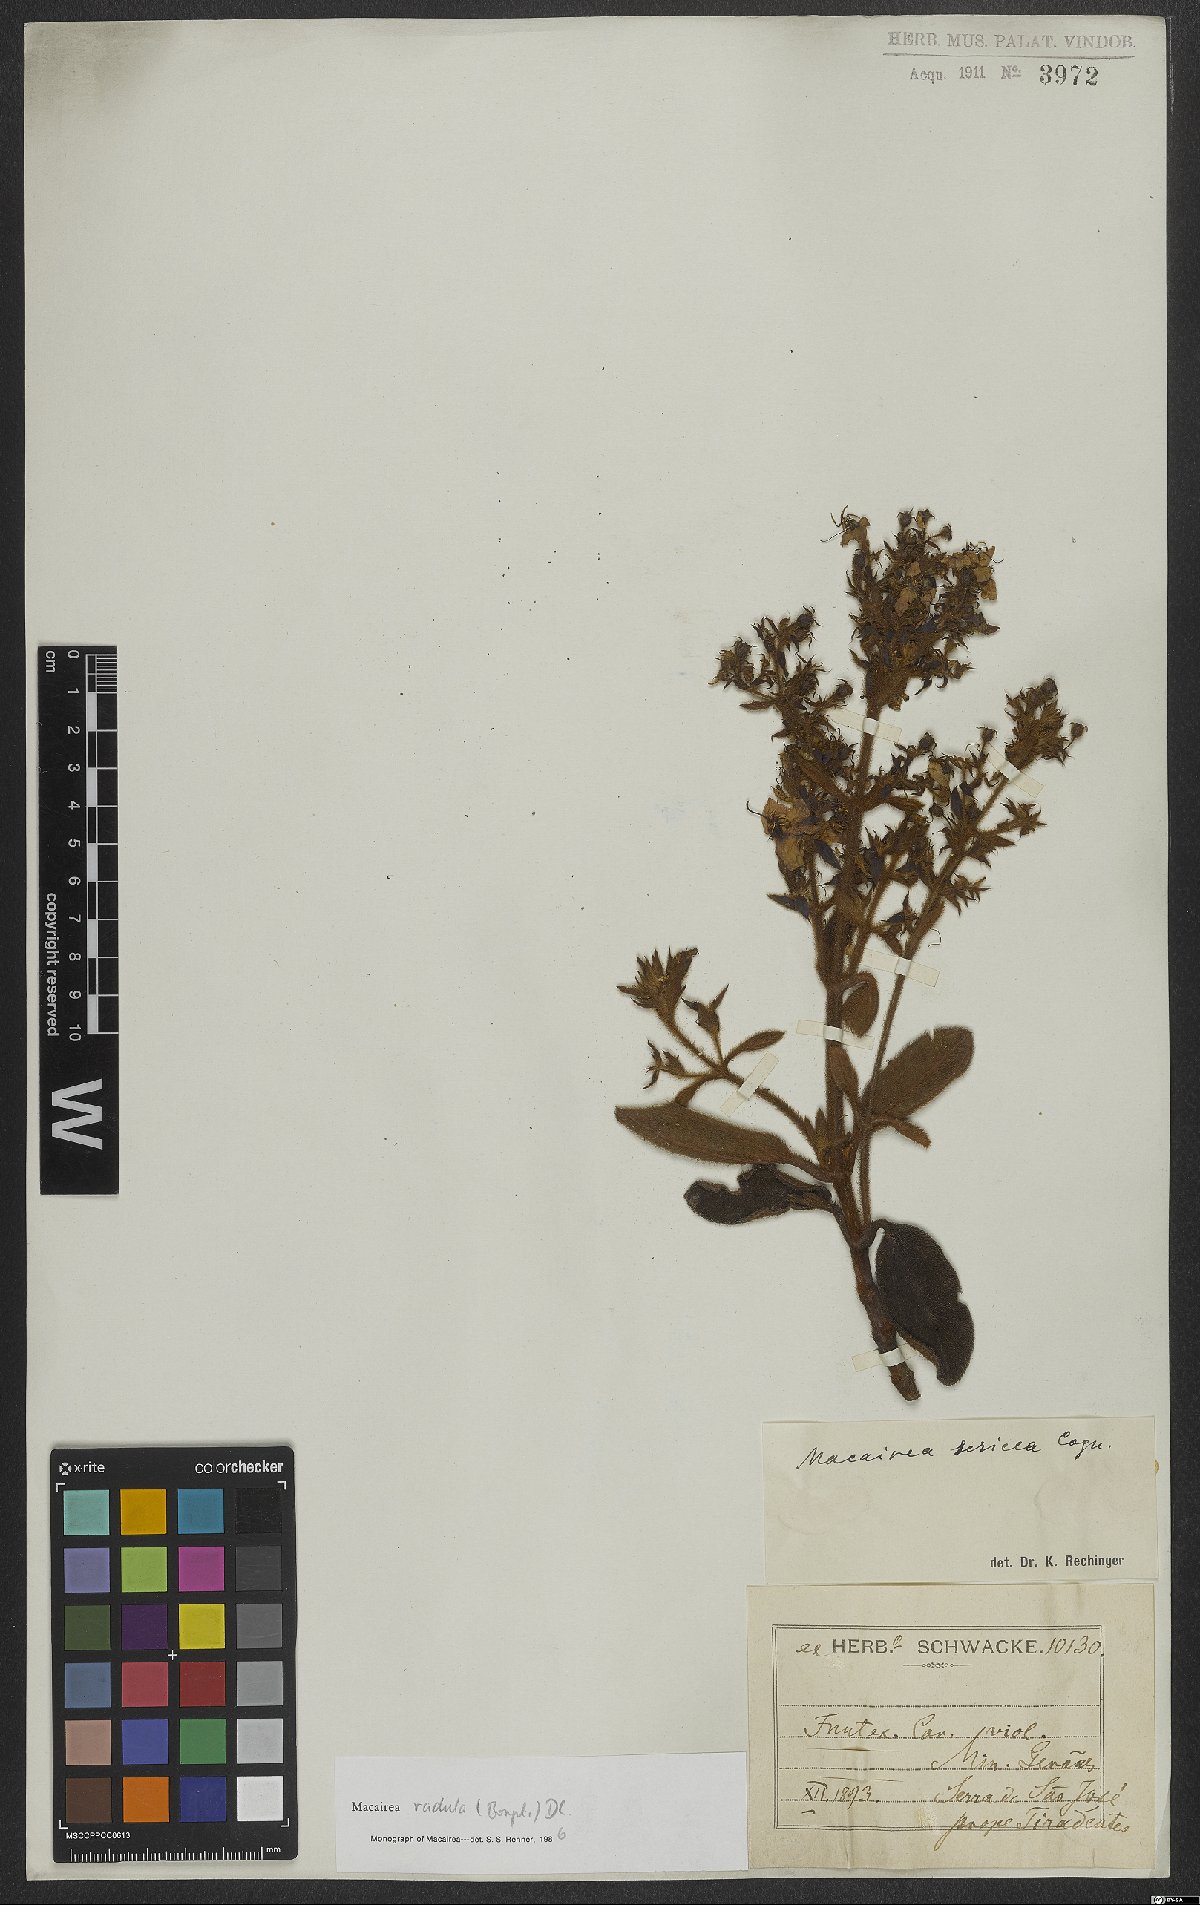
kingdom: Plantae
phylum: Tracheophyta
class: Magnoliopsida
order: Myrtales
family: Melastomataceae
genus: Macairea
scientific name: Macairea radula
